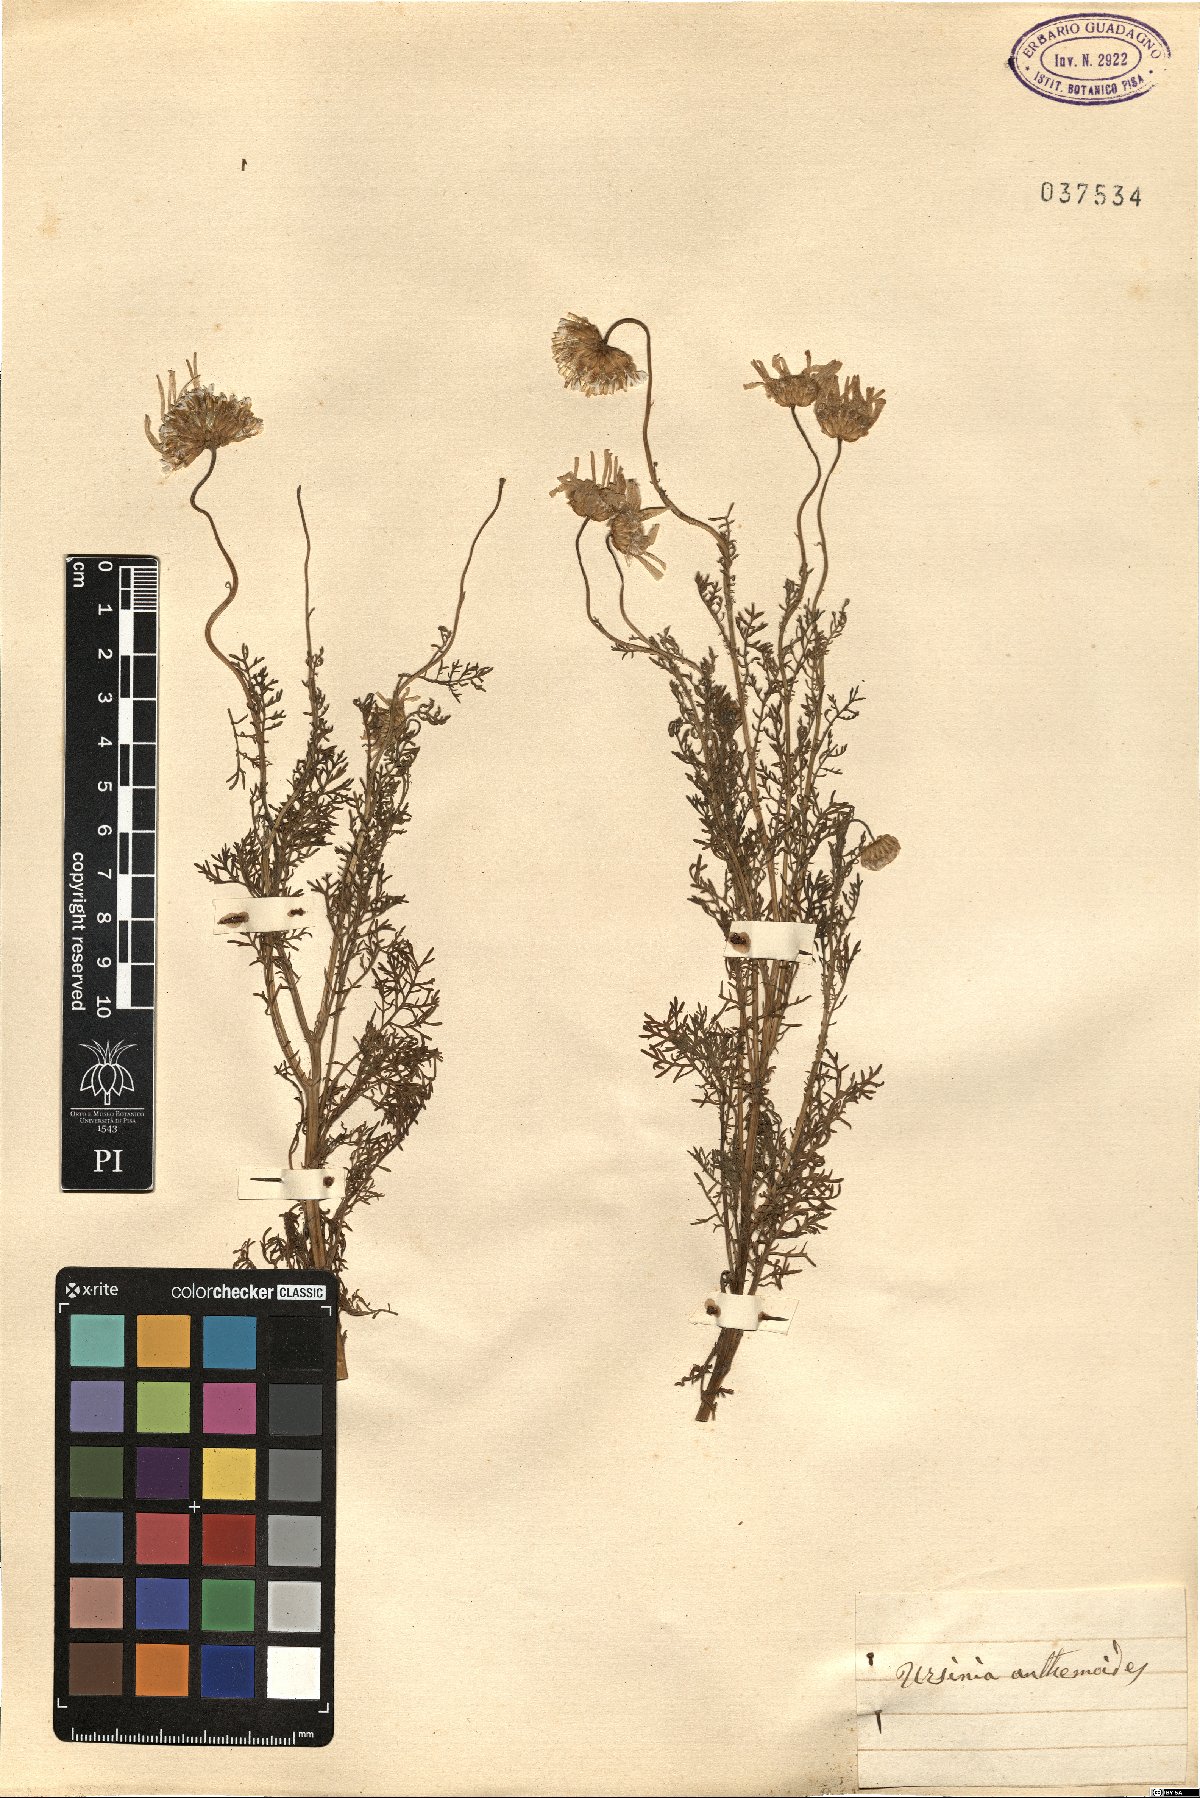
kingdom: Plantae
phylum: Tracheophyta
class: Magnoliopsida
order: Asterales
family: Asteraceae
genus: Ursinia
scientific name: Ursinia anthemoides
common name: Ursinia
